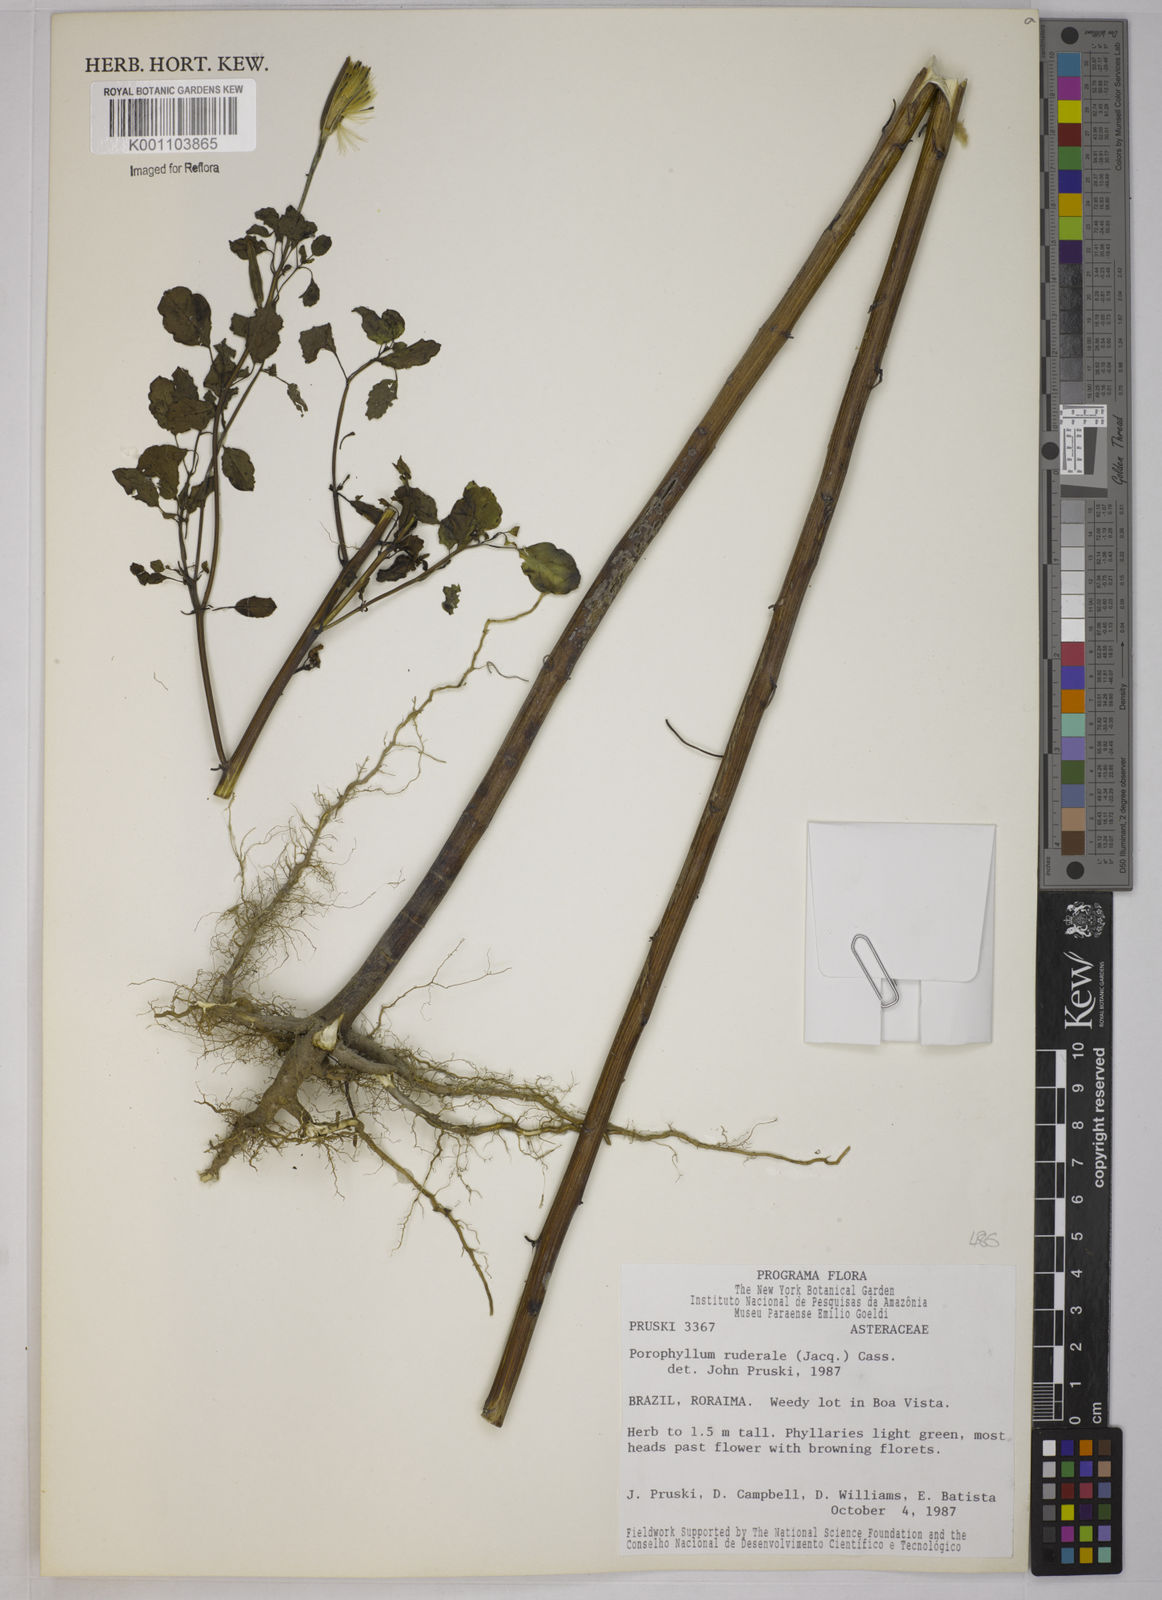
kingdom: Plantae
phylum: Tracheophyta
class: Magnoliopsida
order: Asterales
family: Asteraceae
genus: Porophyllum
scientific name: Porophyllum ruderale
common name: Yerba porosa
